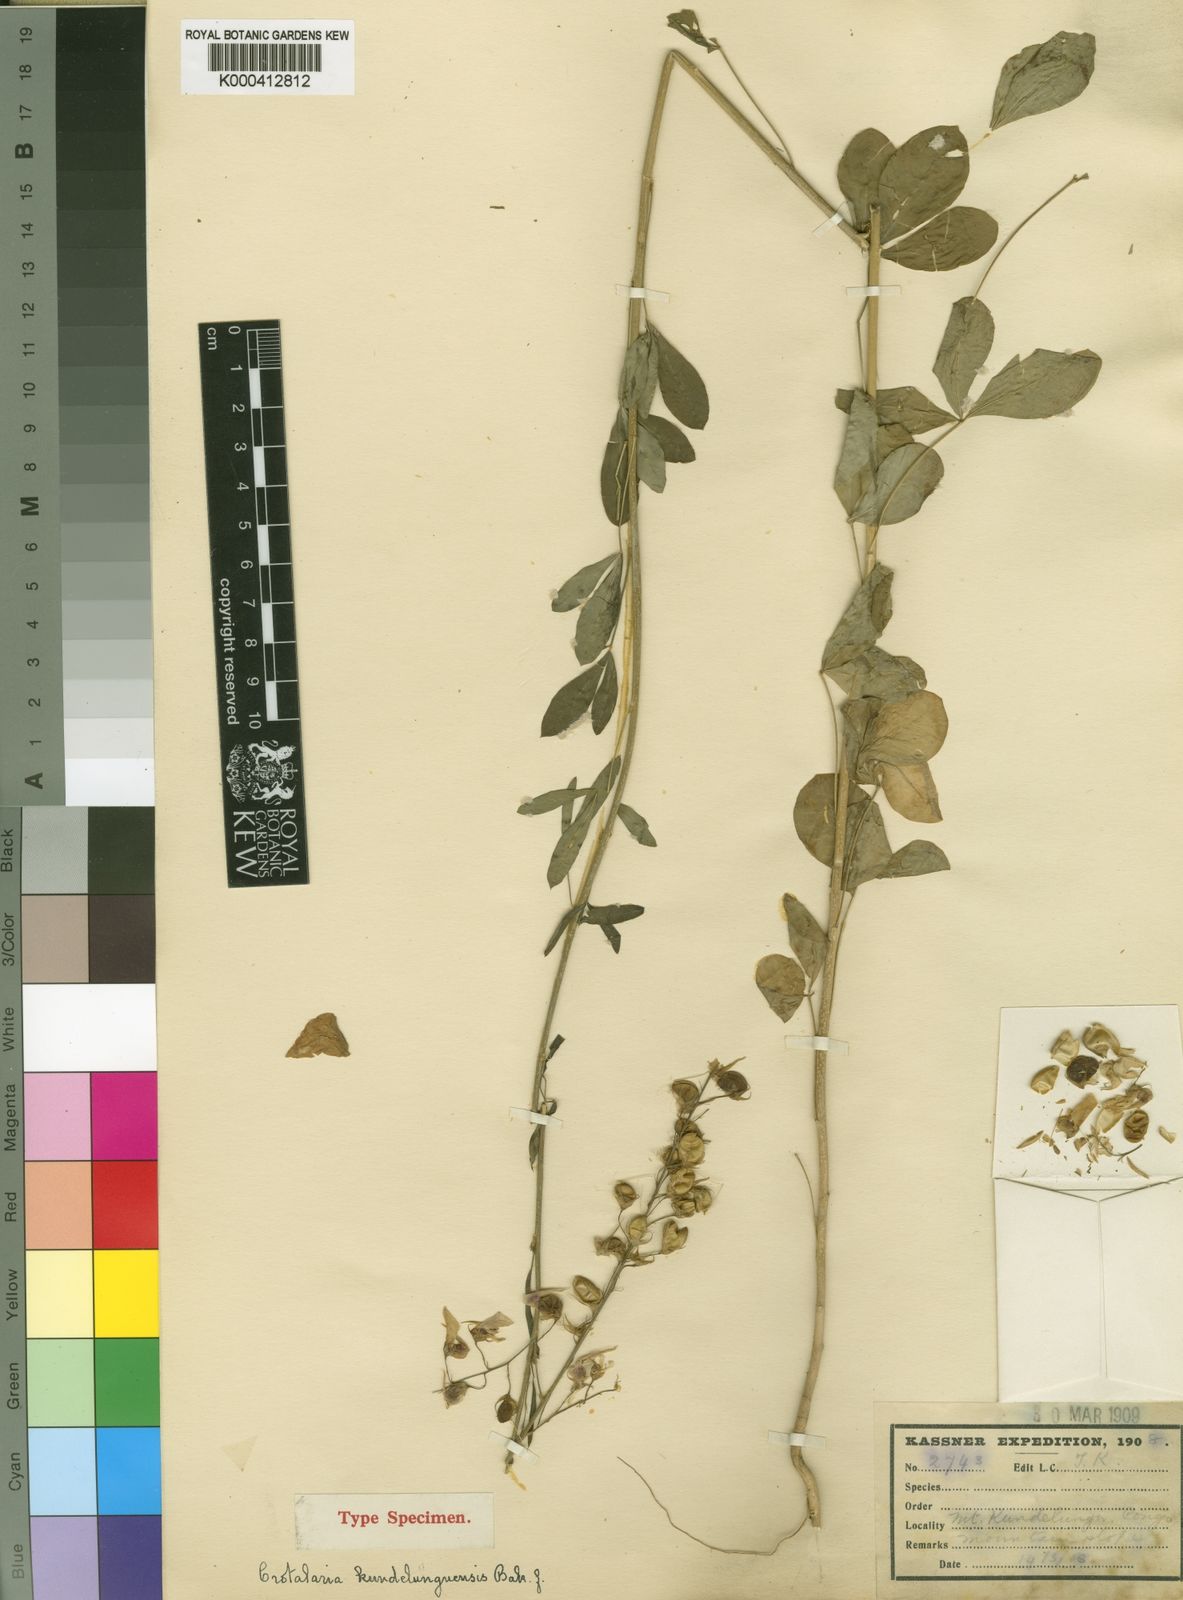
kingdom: Plantae
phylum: Tracheophyta
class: Magnoliopsida
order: Fabales
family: Fabaceae
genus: Crotalaria
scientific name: Crotalaria kundelunguensis
